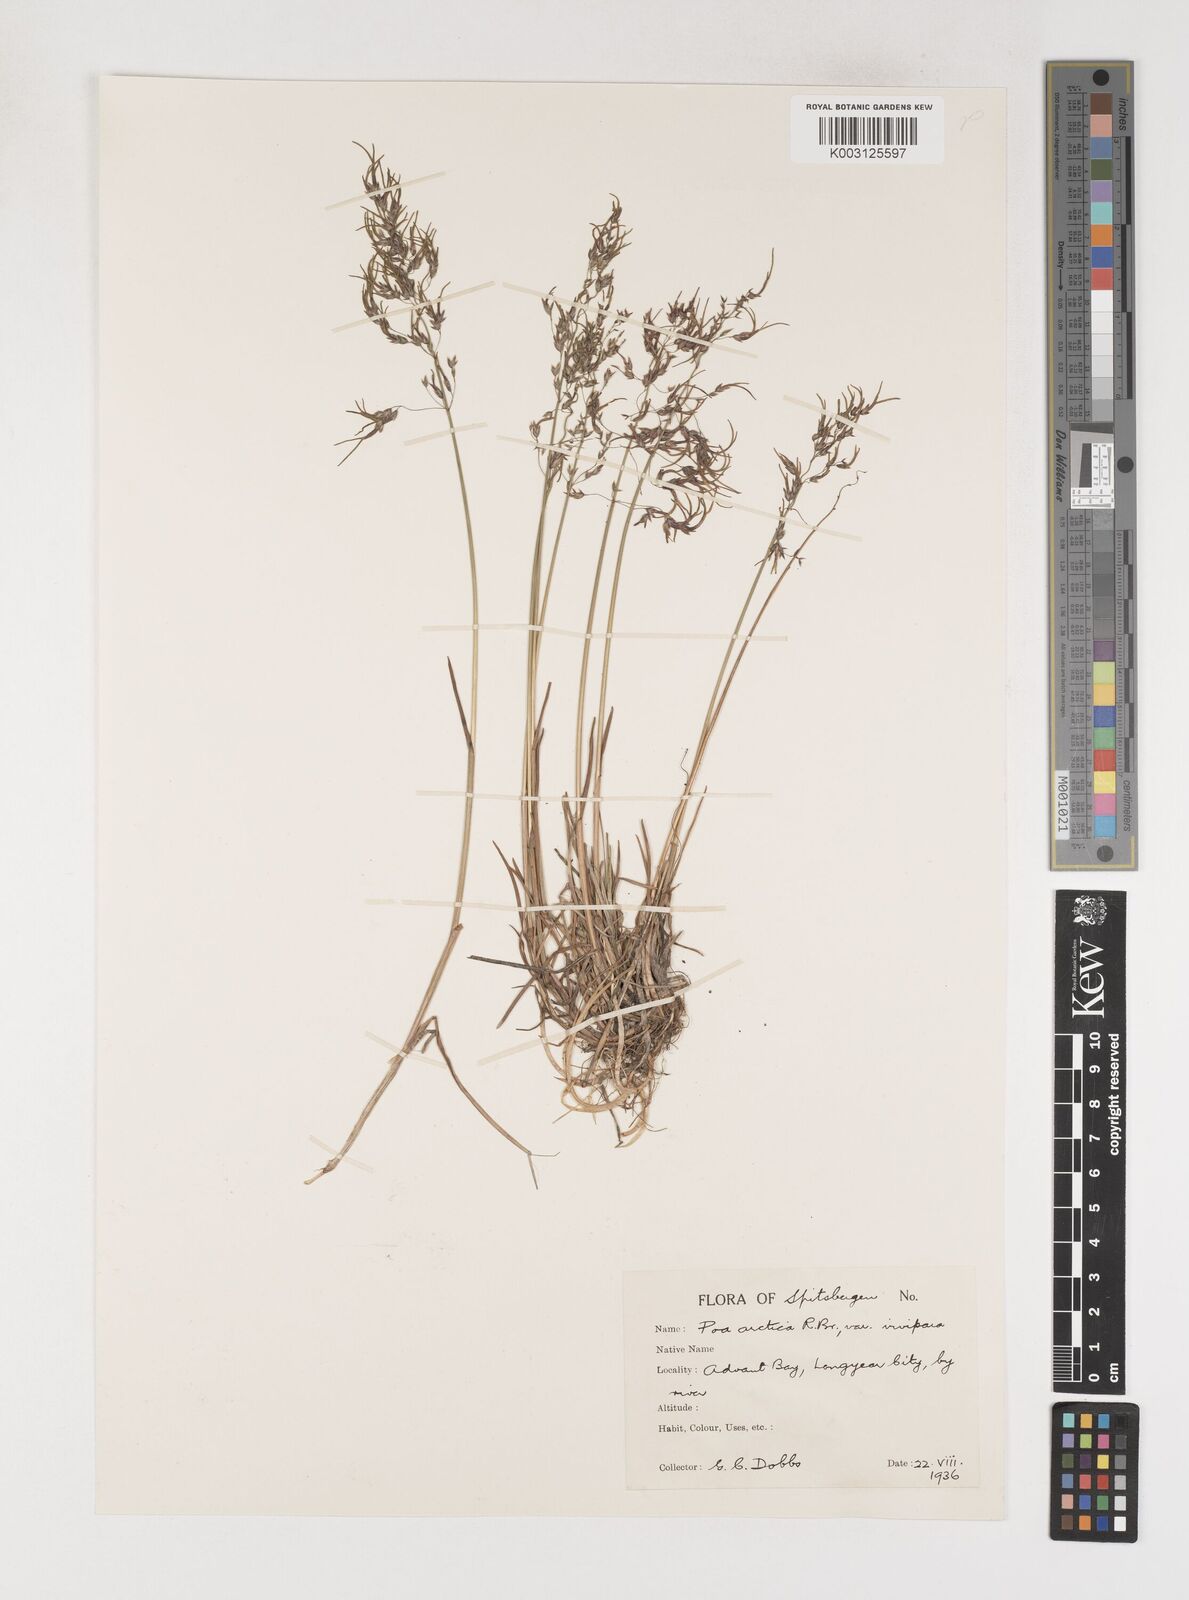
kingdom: Plantae
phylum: Tracheophyta
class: Liliopsida
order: Poales
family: Poaceae
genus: Poa
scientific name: Poa arctica
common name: Arctic bluegrass
